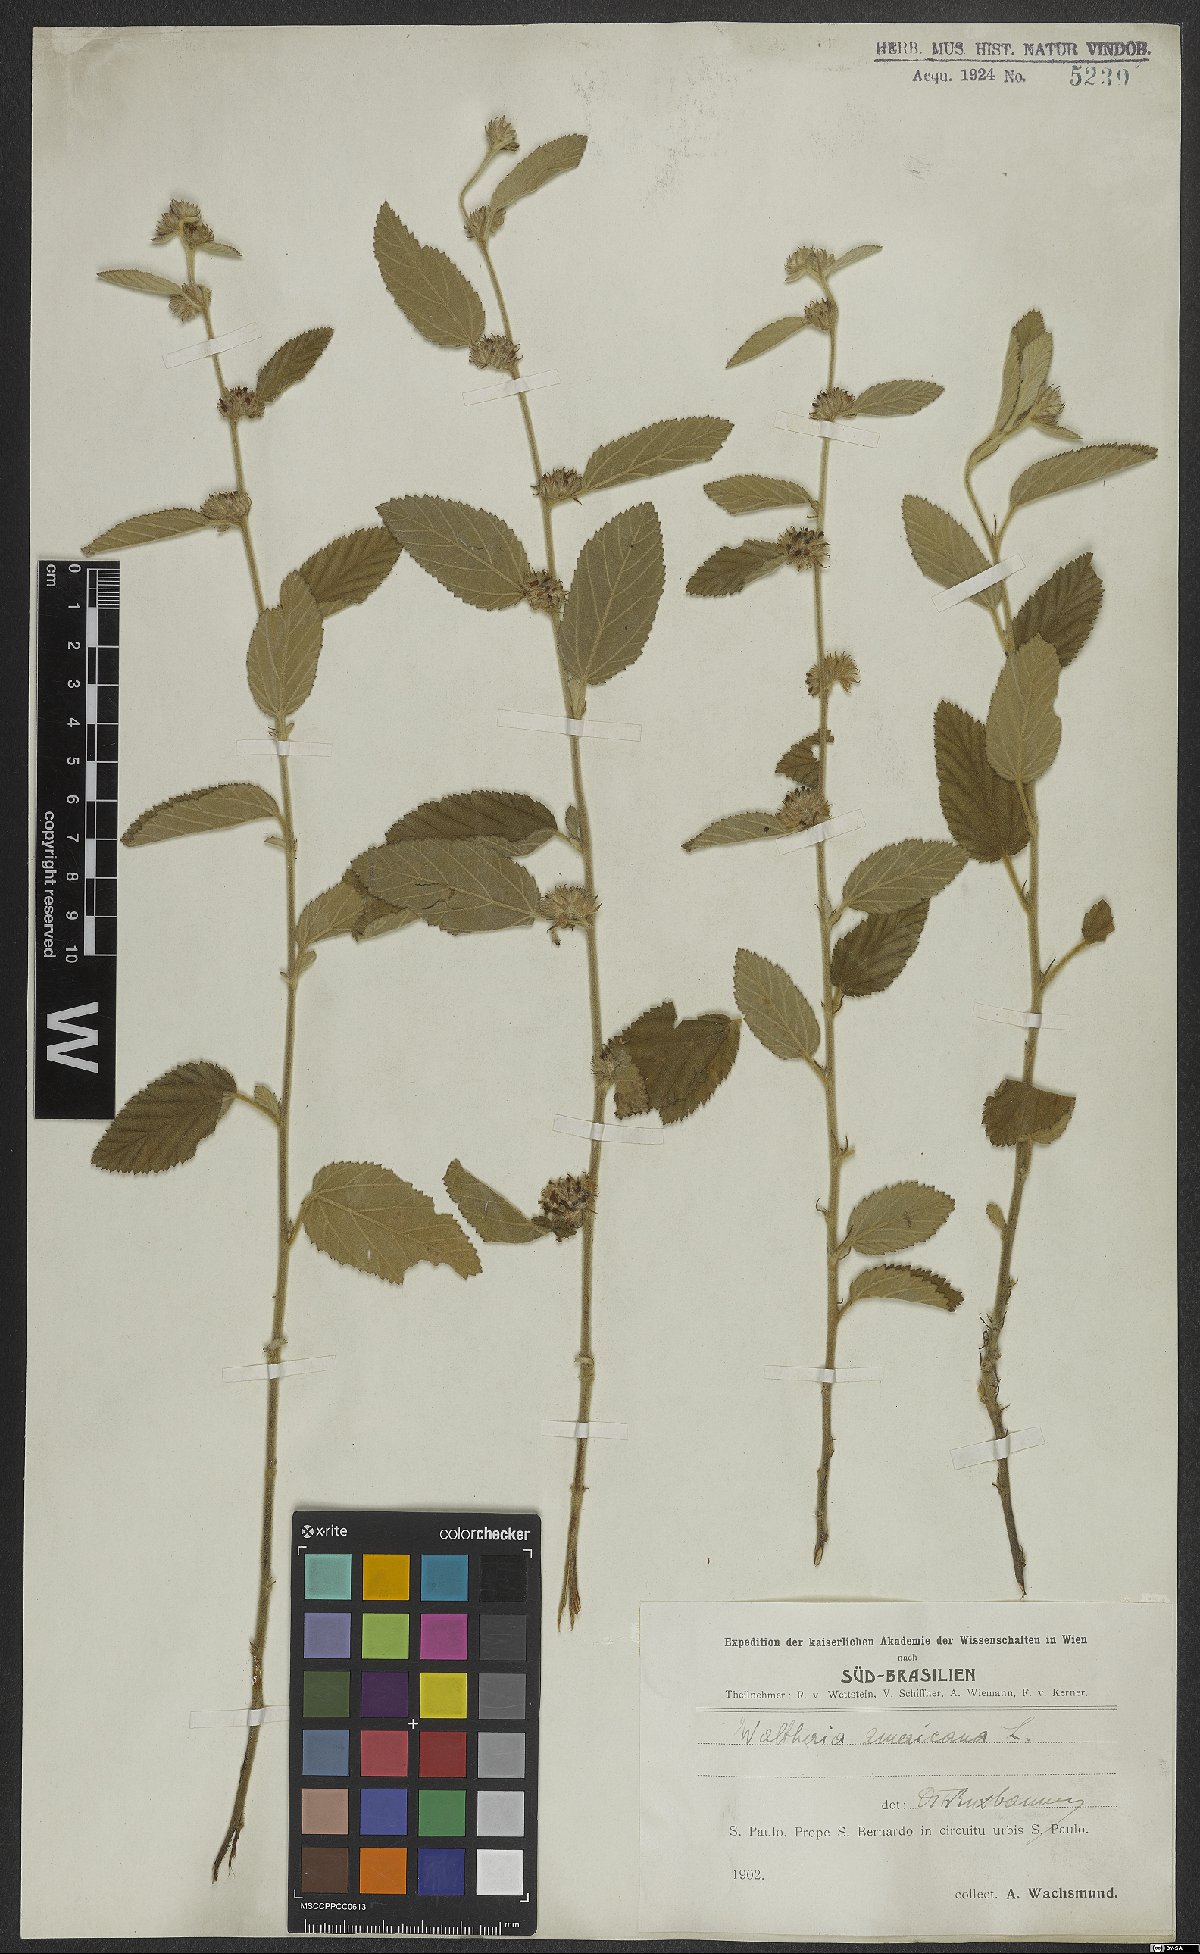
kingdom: Plantae
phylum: Tracheophyta
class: Magnoliopsida
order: Malvales
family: Malvaceae
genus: Waltheria
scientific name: Waltheria indica
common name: Leather-coat
